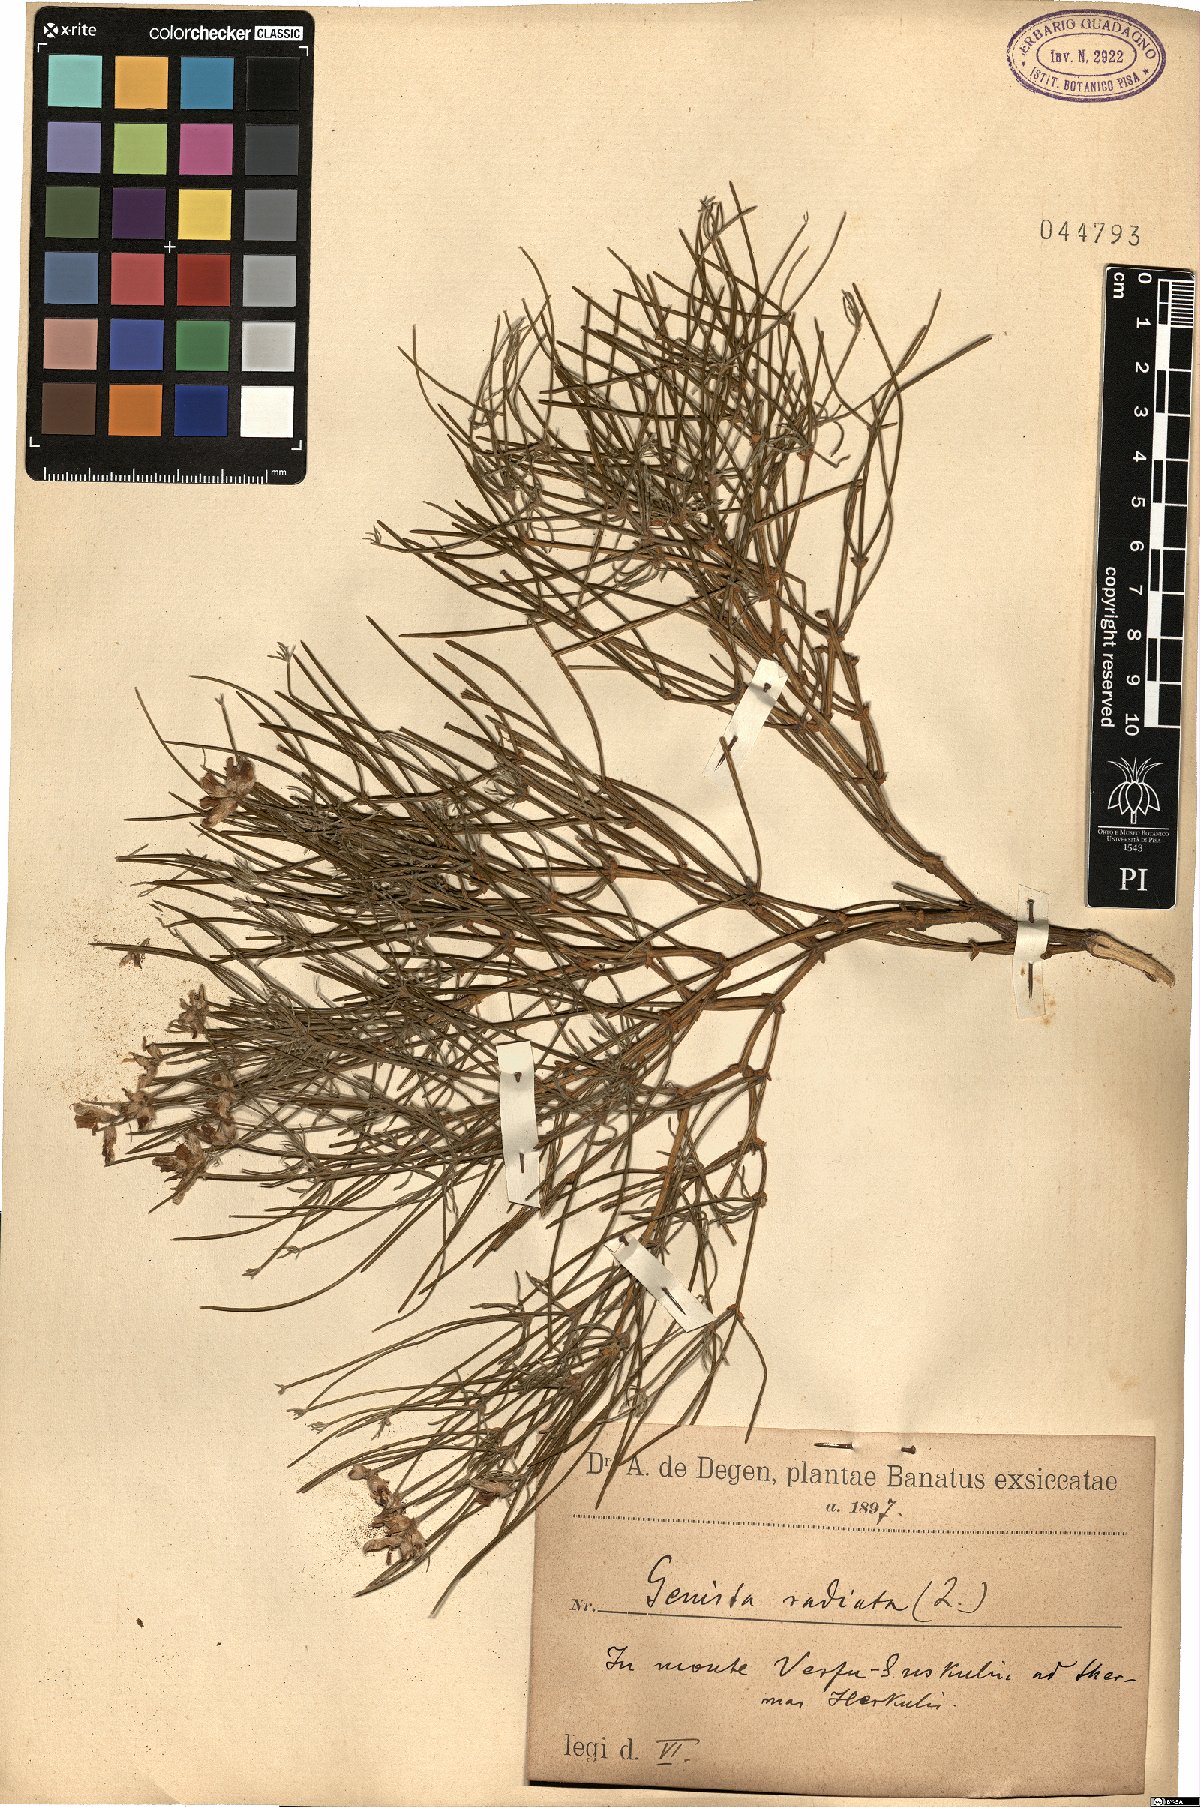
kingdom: Plantae
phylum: Tracheophyta
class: Magnoliopsida
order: Fabales
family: Fabaceae
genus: Genista
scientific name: Genista radiata
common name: Southern greenweed
